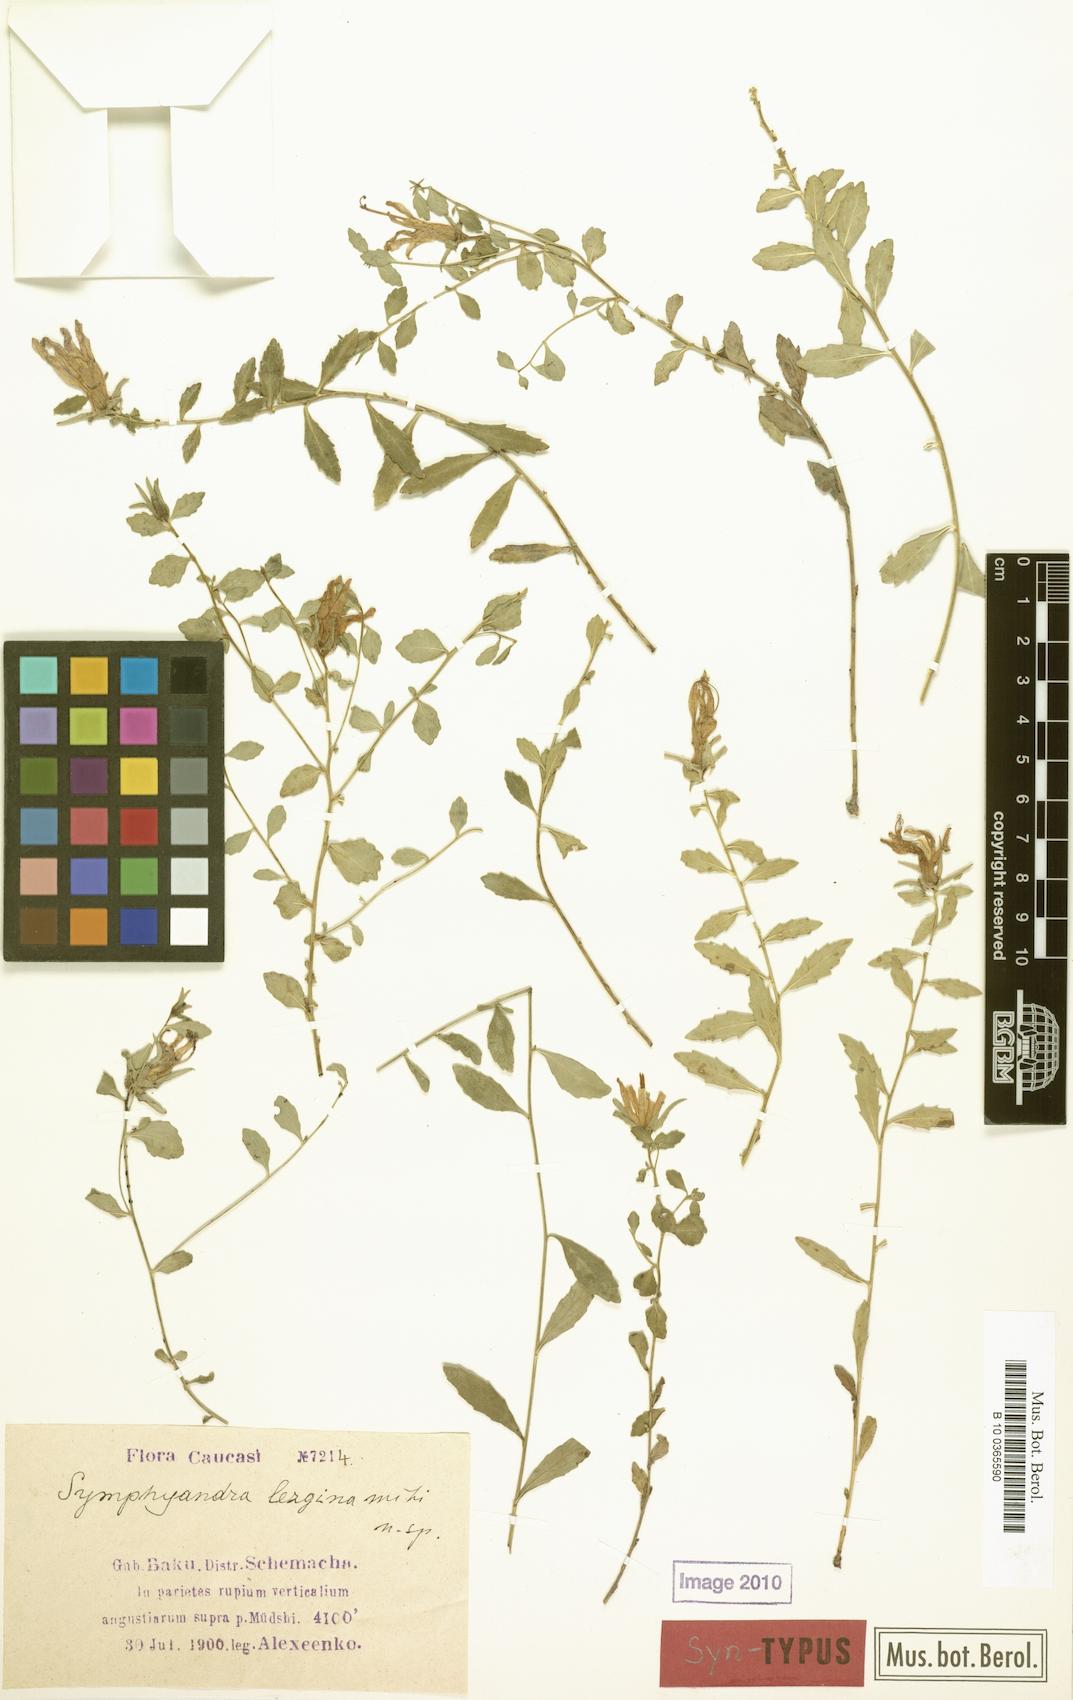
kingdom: Plantae
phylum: Tracheophyta
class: Magnoliopsida
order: Asterales
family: Campanulaceae
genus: Campanula
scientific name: Campanula lezgina
